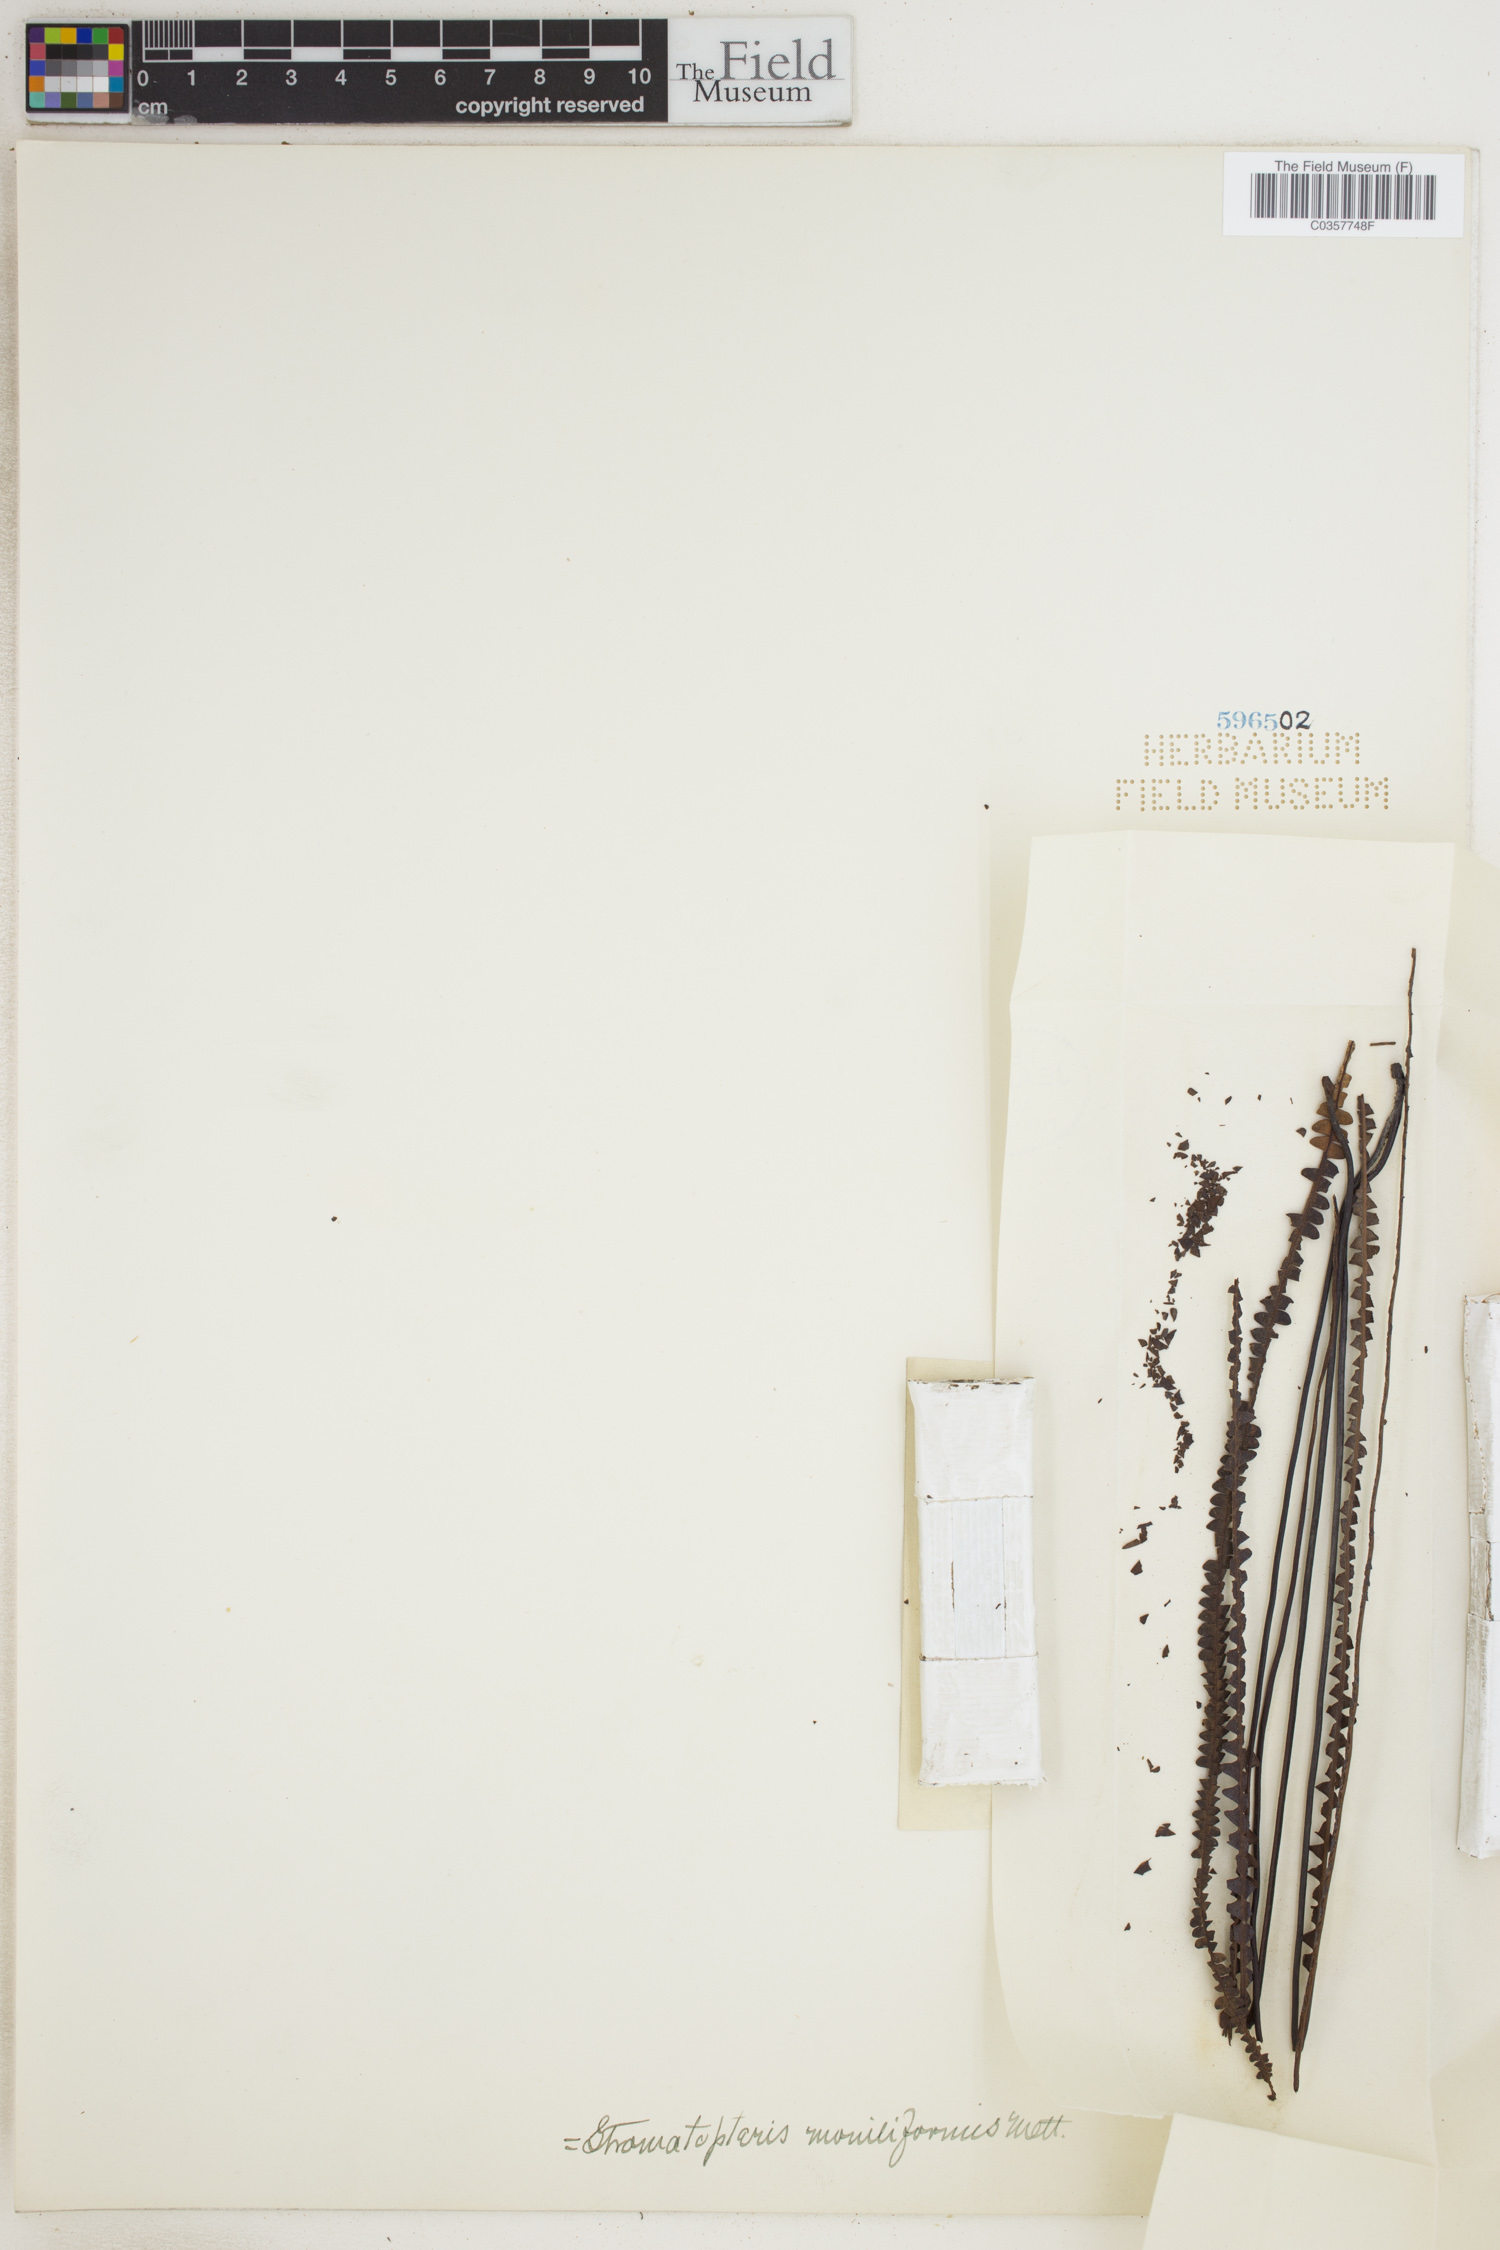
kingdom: Plantae
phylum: Tracheophyta
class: Polypodiopsida
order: Gleicheniales
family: Gleicheniaceae
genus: Stromatopteris
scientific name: Stromatopteris moniliformis
